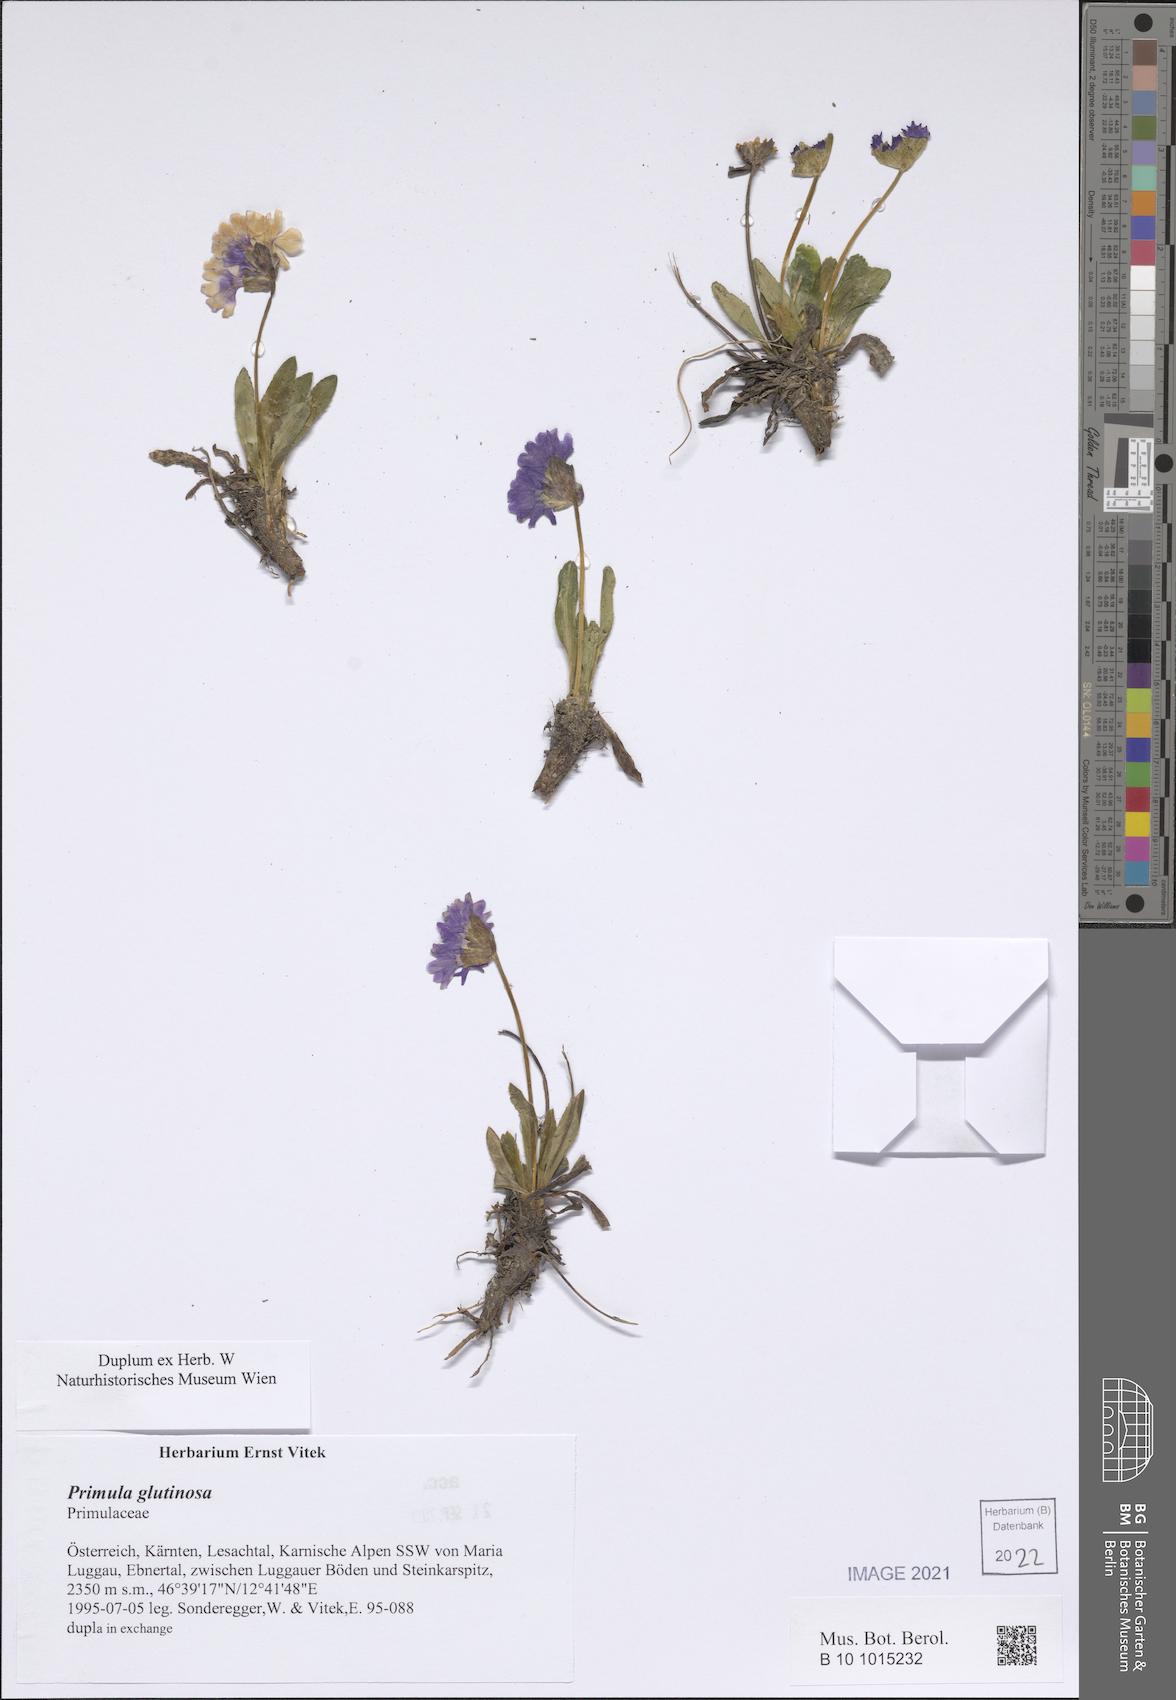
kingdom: Plantae
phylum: Tracheophyta
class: Magnoliopsida
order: Ericales
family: Primulaceae
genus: Primula
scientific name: Primula glutinosa
